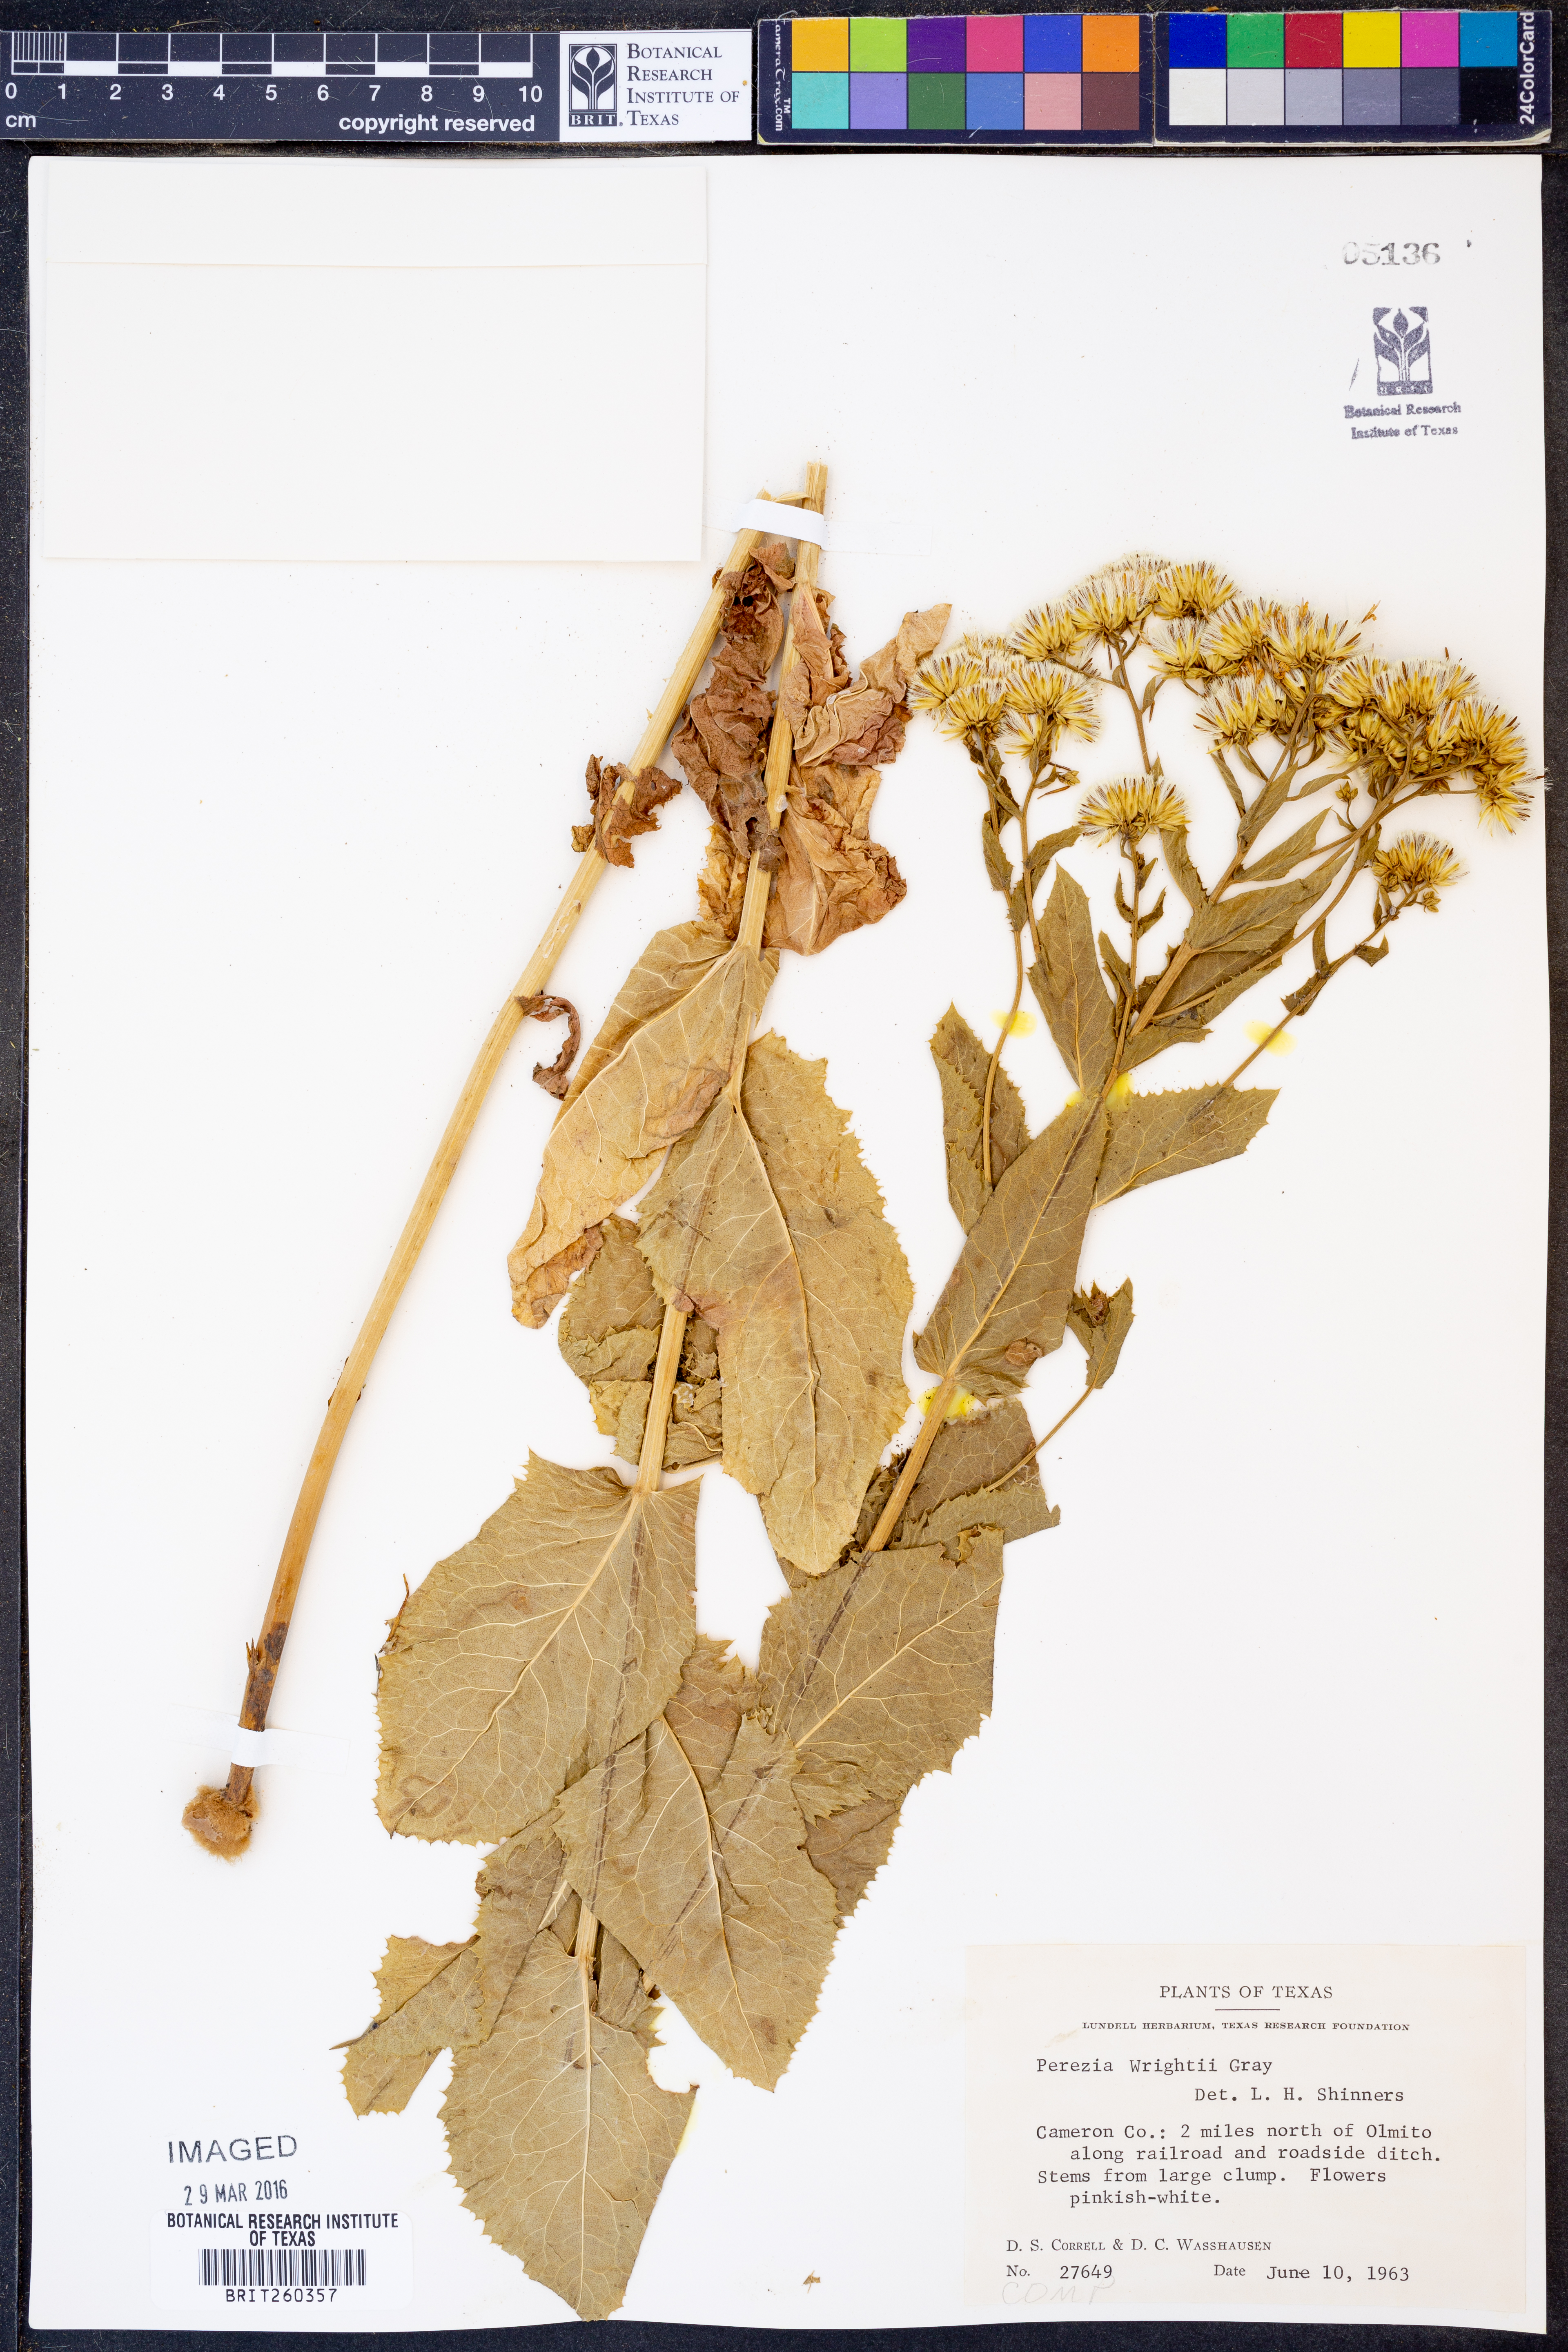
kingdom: Plantae
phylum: Tracheophyta
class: Magnoliopsida
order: Asterales
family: Asteraceae
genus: Acourtia
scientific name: Acourtia wrightii
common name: Brownfoot
